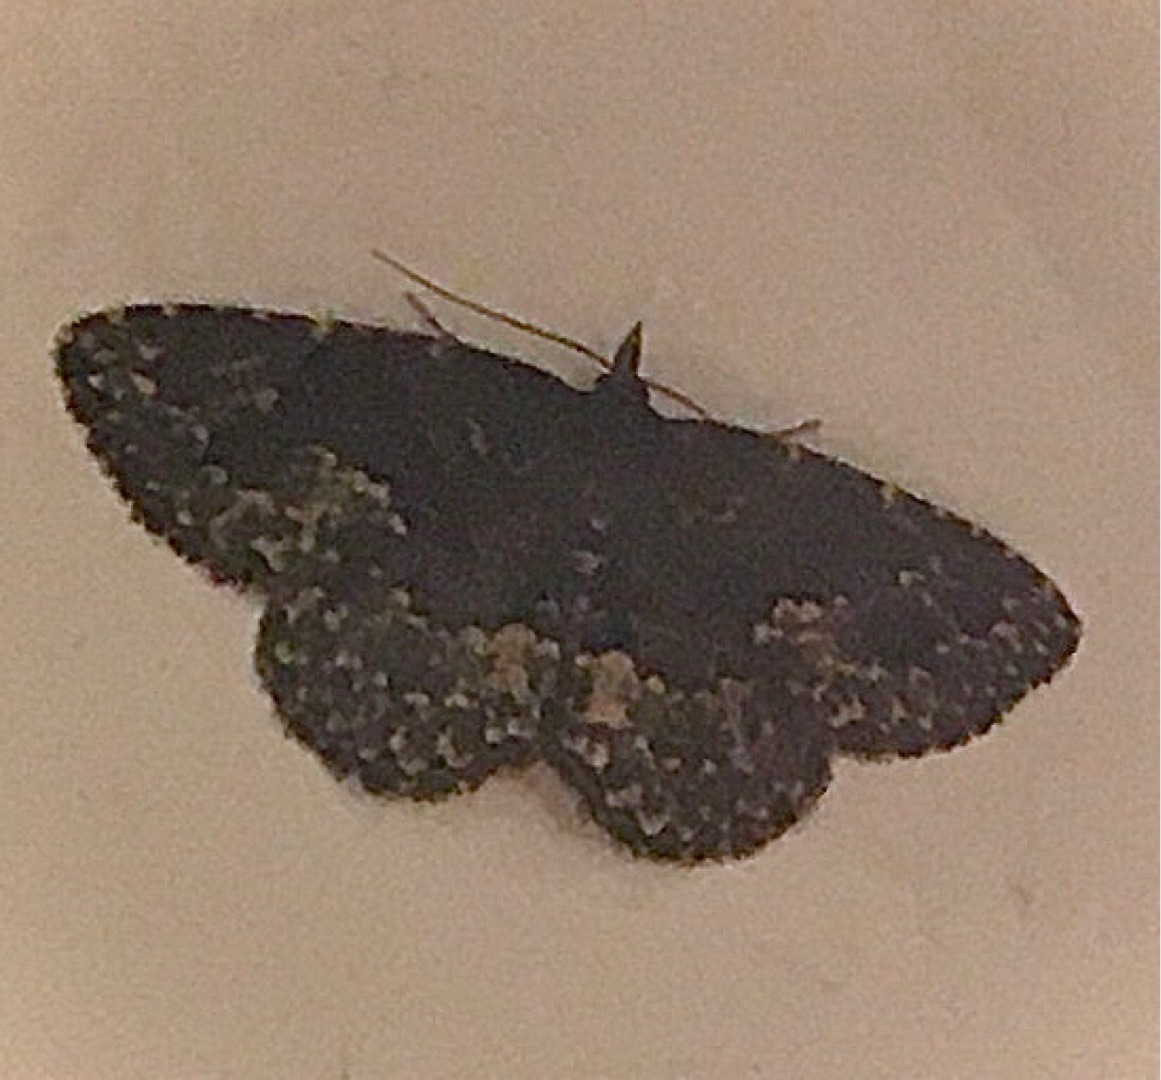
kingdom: Animalia
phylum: Arthropoda
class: Insecta
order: Lepidoptera
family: Erebidae
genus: Parascotia
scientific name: Parascotia fuliginaria
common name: Svampeugle
